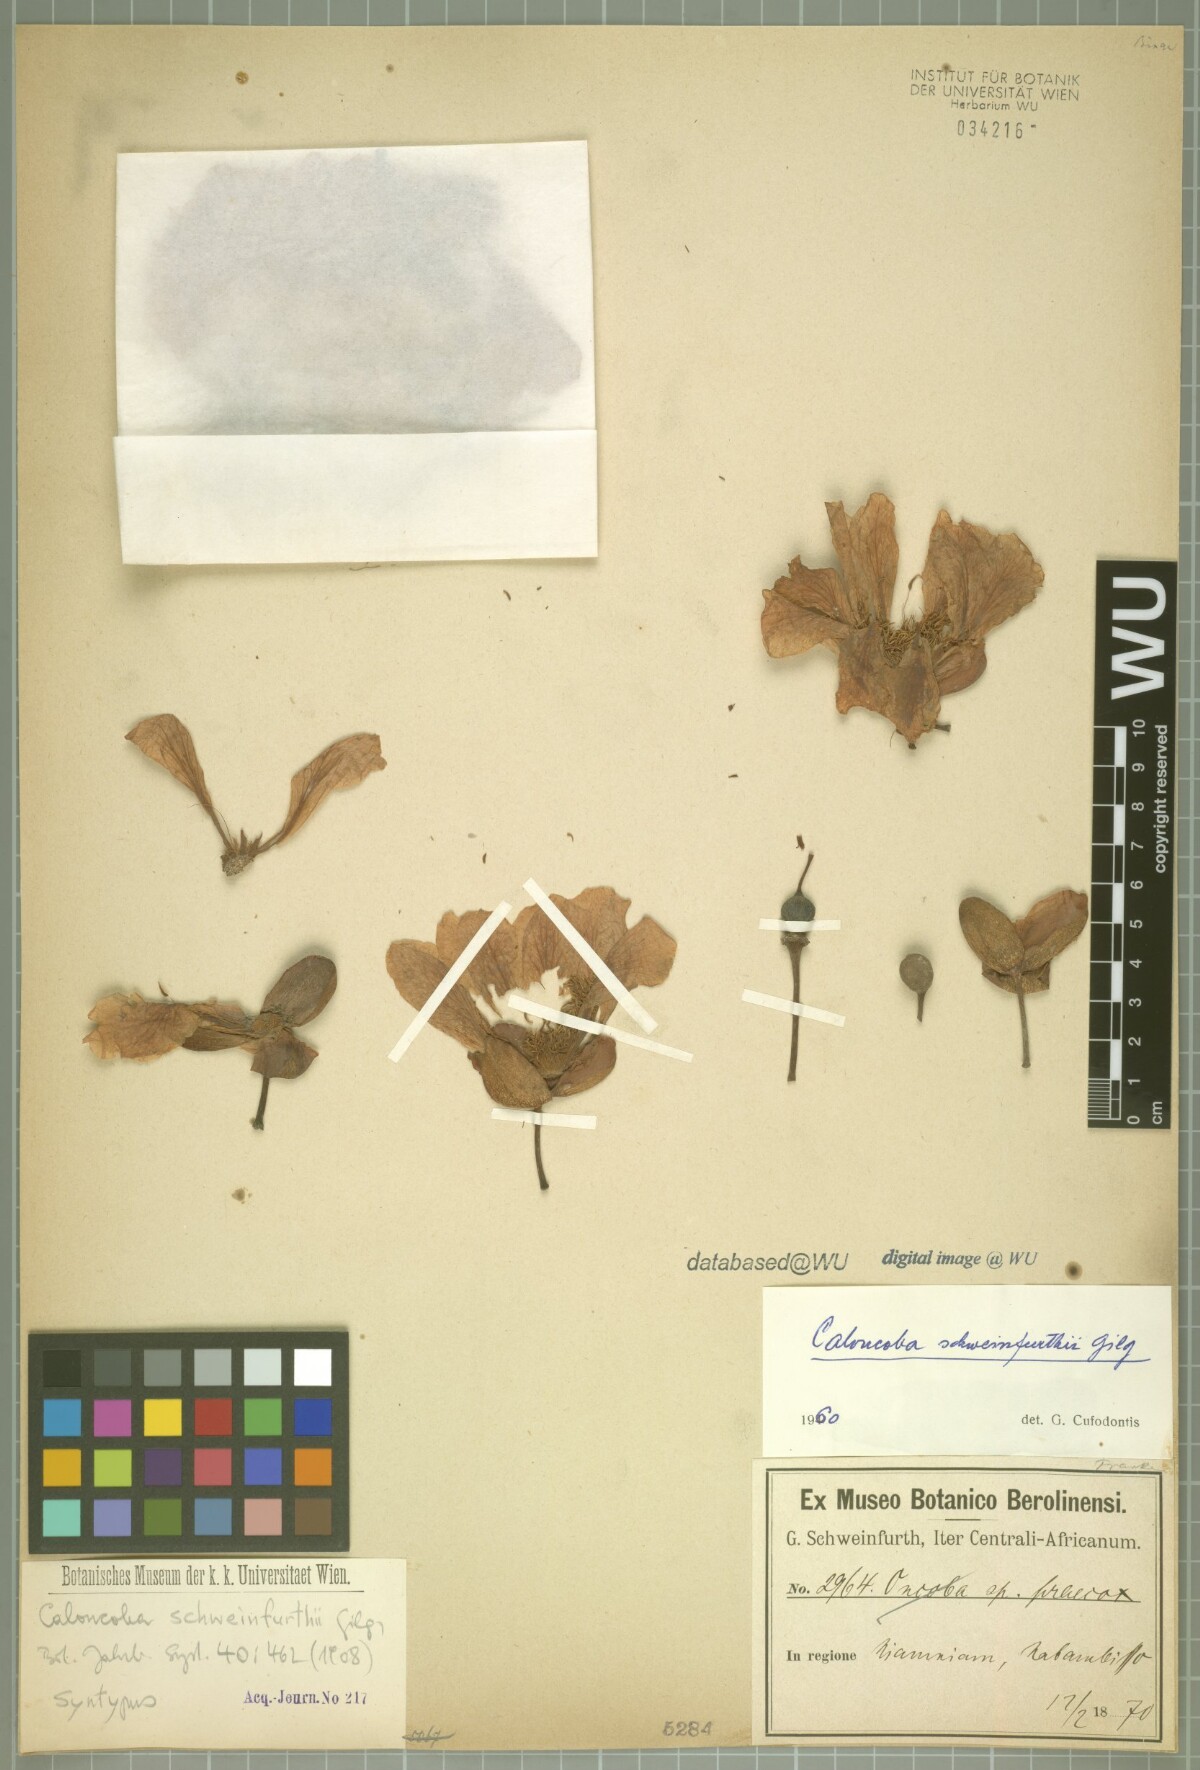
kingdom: Plantae
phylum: Tracheophyta
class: Magnoliopsida
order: Malpighiales
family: Achariaceae
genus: Caloncoba
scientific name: Caloncoba crepiniana
